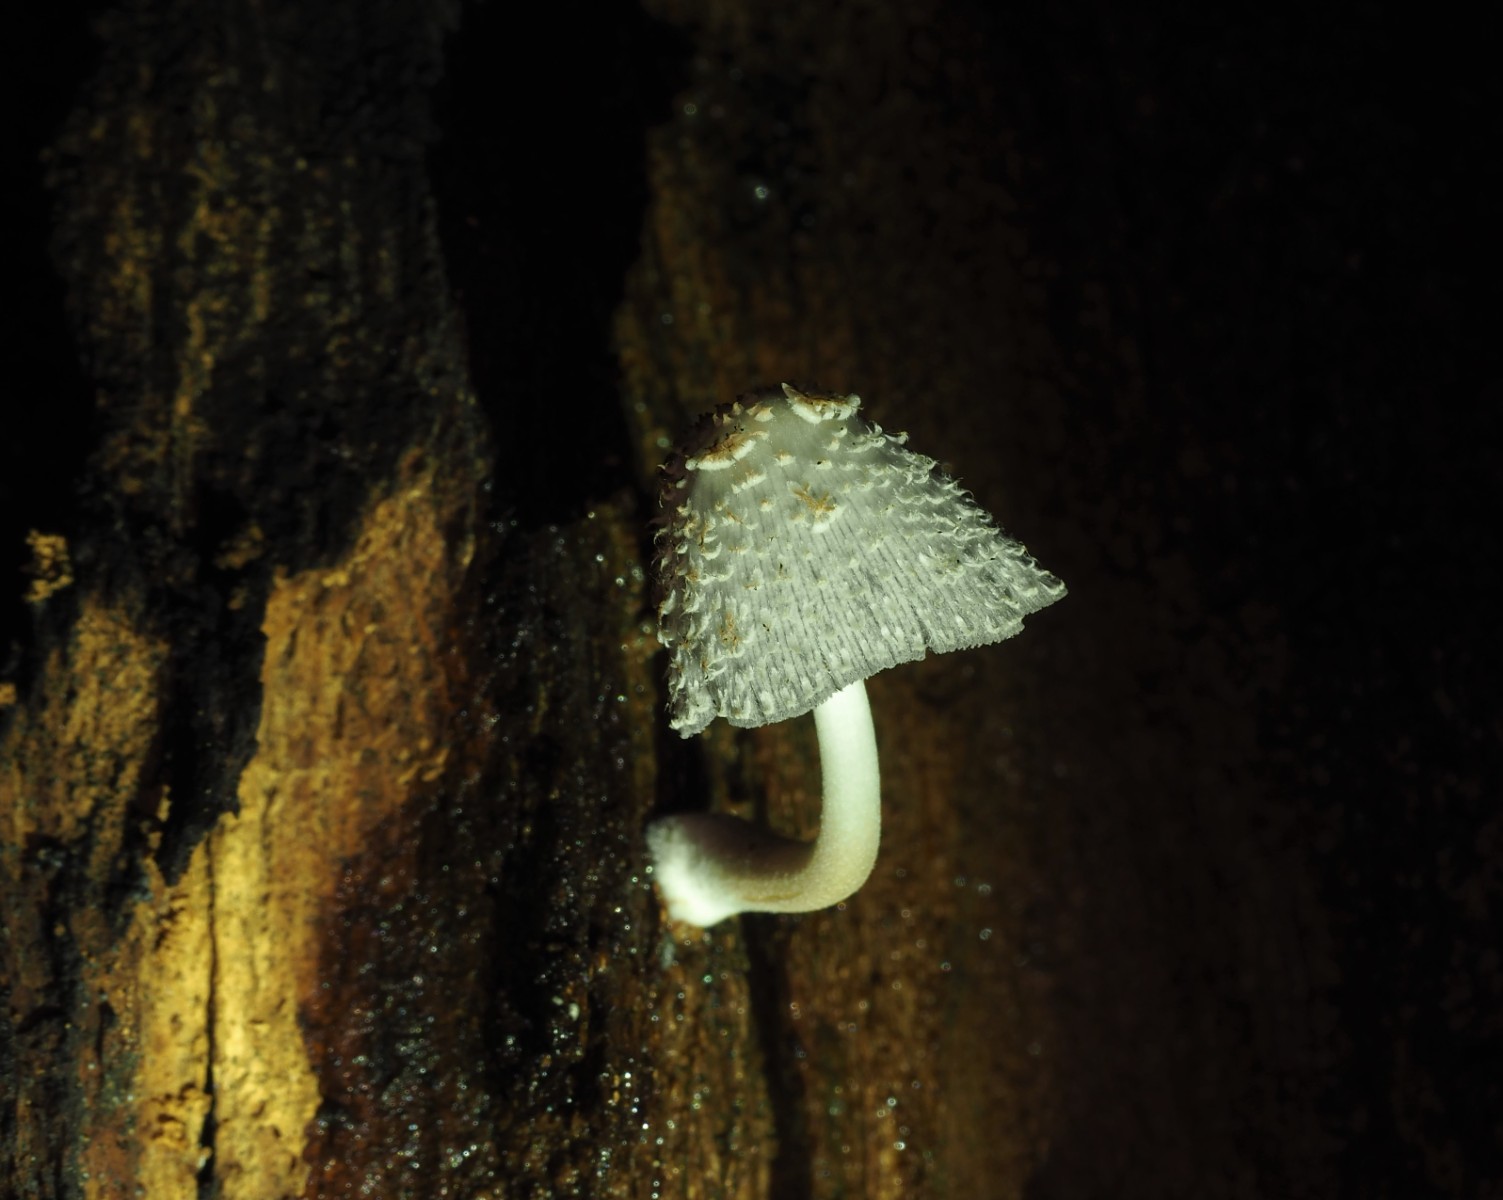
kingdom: Fungi
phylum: Basidiomycota
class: Agaricomycetes
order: Agaricales
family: Psathyrellaceae
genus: Coprinopsis
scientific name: Coprinopsis mitrispora
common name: hul-blækhat
